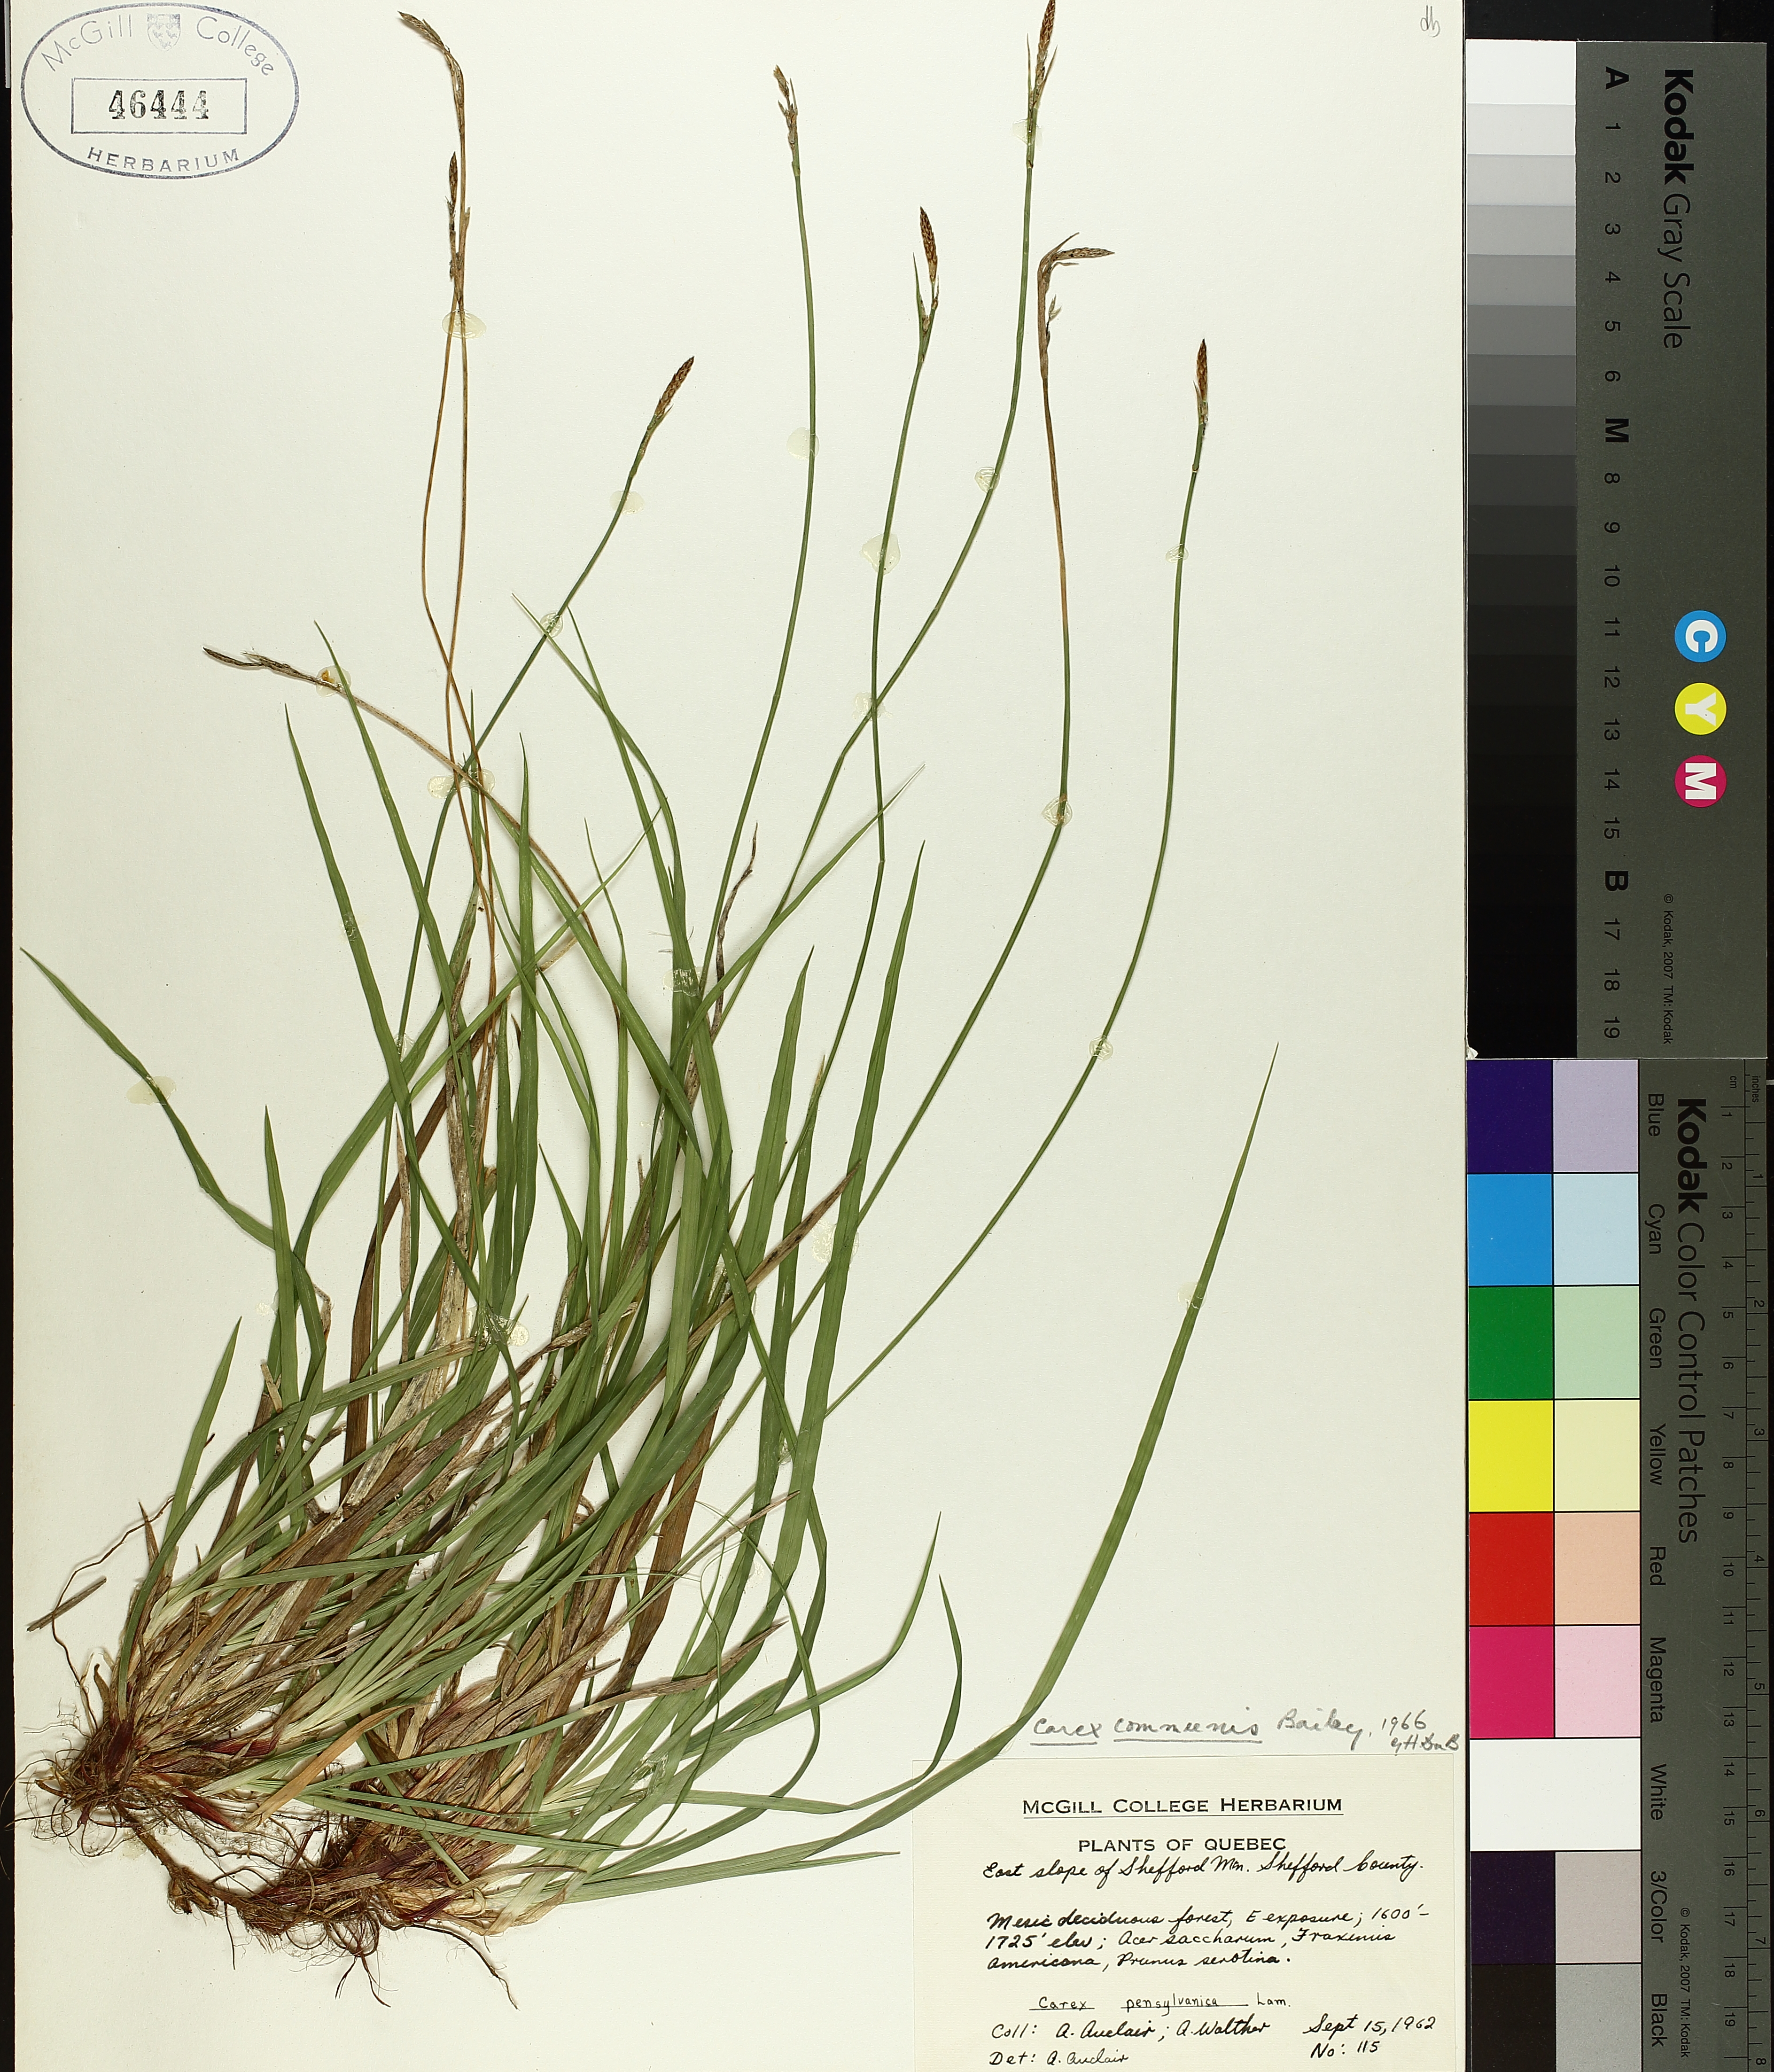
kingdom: Plantae
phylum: Tracheophyta
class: Liliopsida
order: Poales
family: Cyperaceae
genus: Carex
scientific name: Carex communis
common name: Colonial oak sedge
